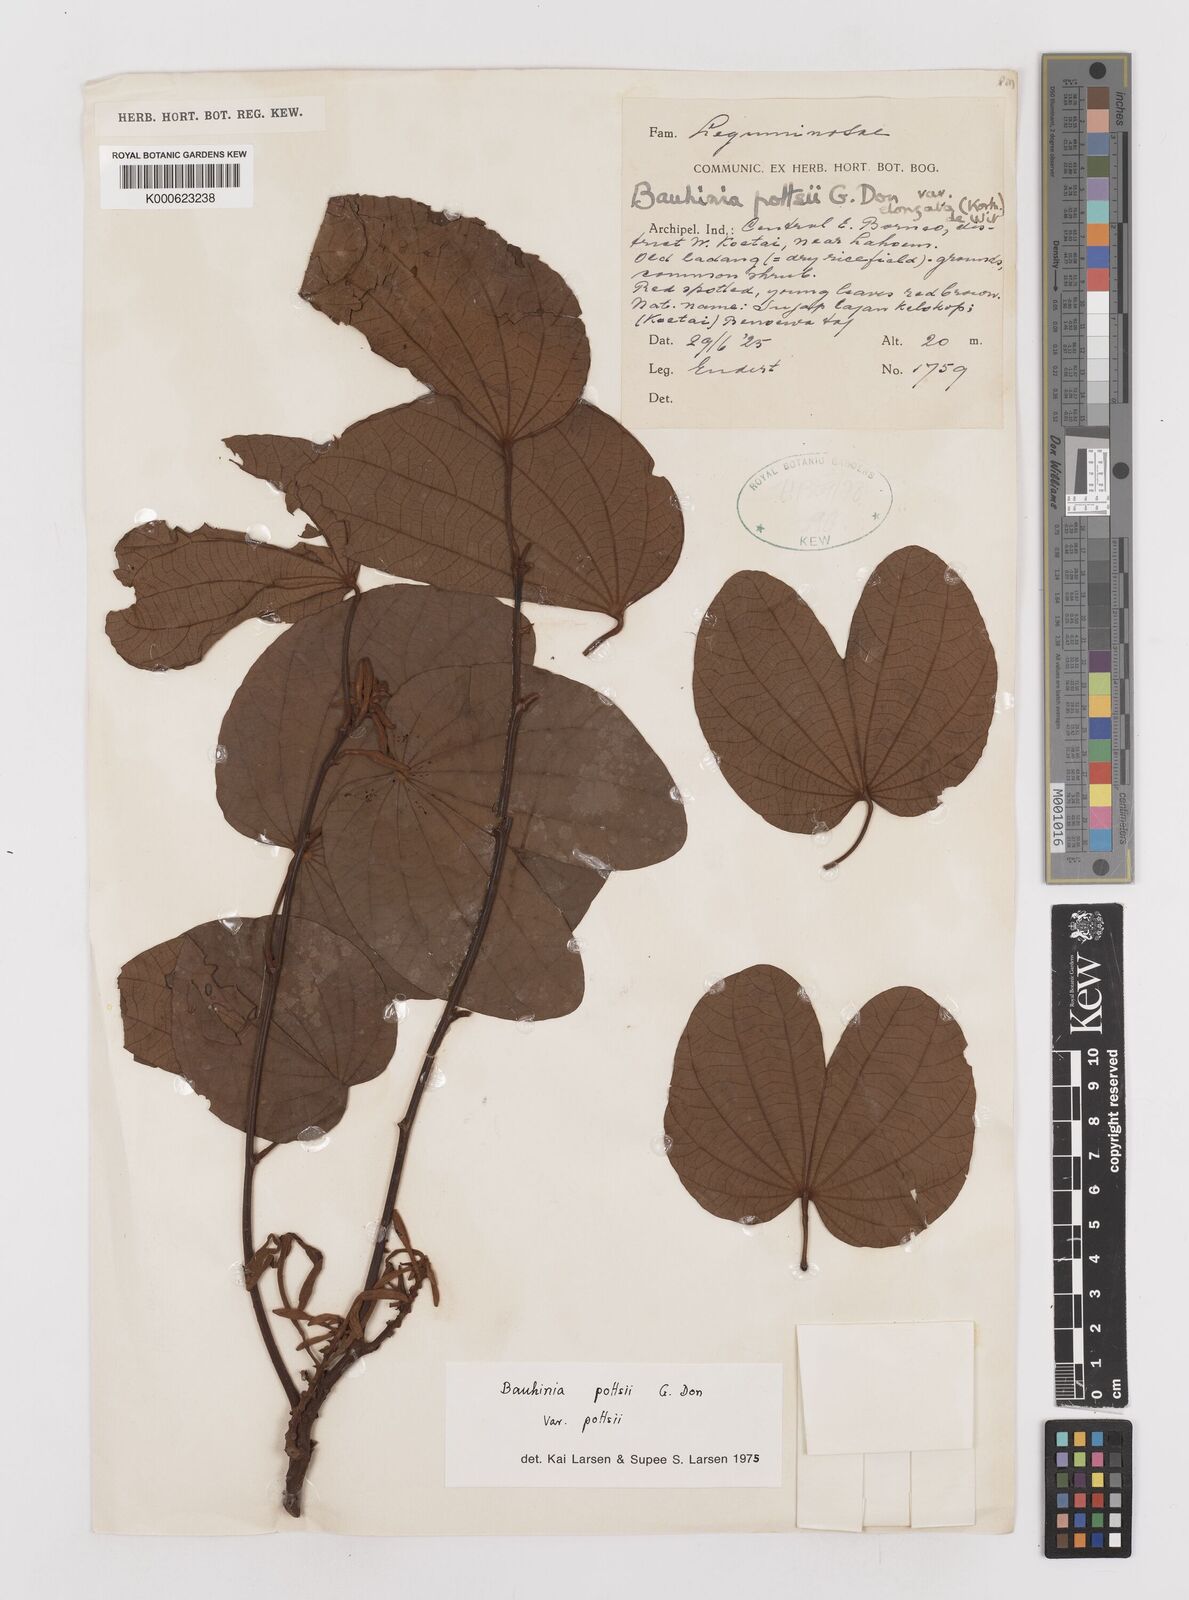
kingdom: Plantae
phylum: Tracheophyta
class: Magnoliopsida
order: Fabales
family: Fabaceae
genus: Bauhinia
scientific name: Bauhinia
